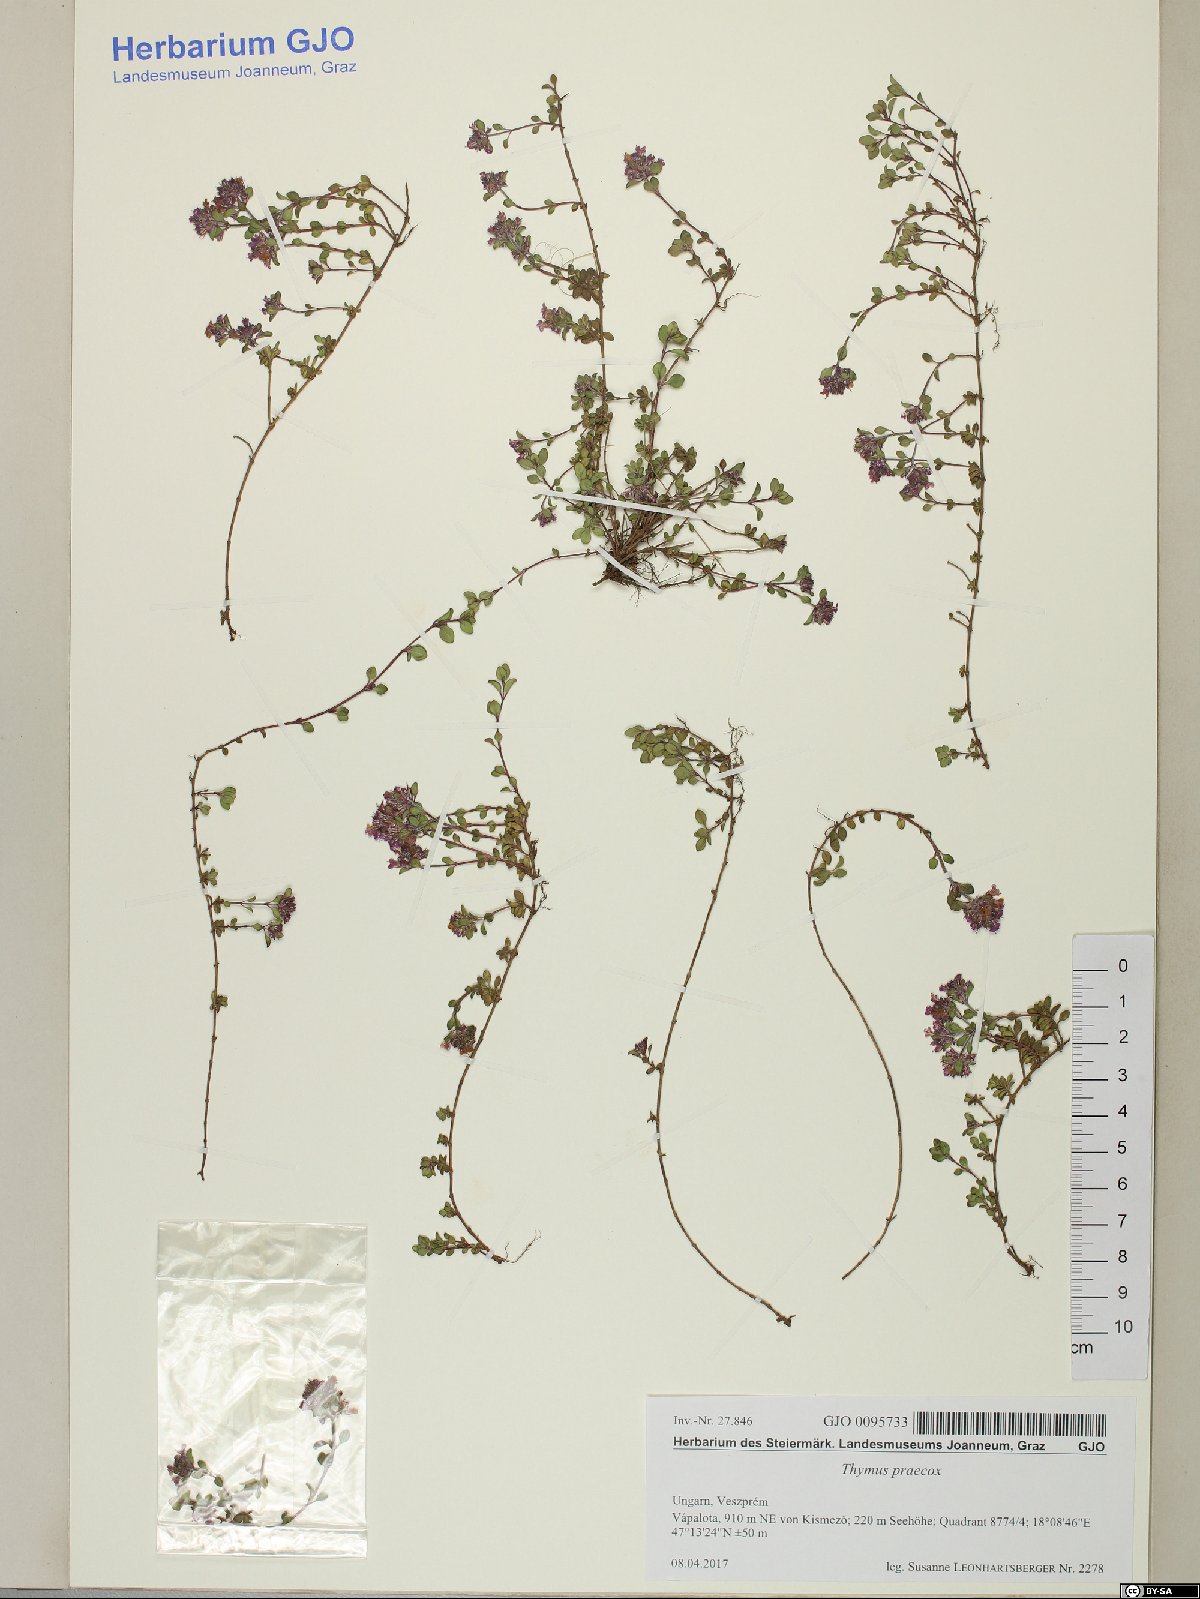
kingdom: Plantae
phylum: Tracheophyta
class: Magnoliopsida
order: Lamiales
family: Lamiaceae
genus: Thymus
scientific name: Thymus praecox
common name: Wild thyme
